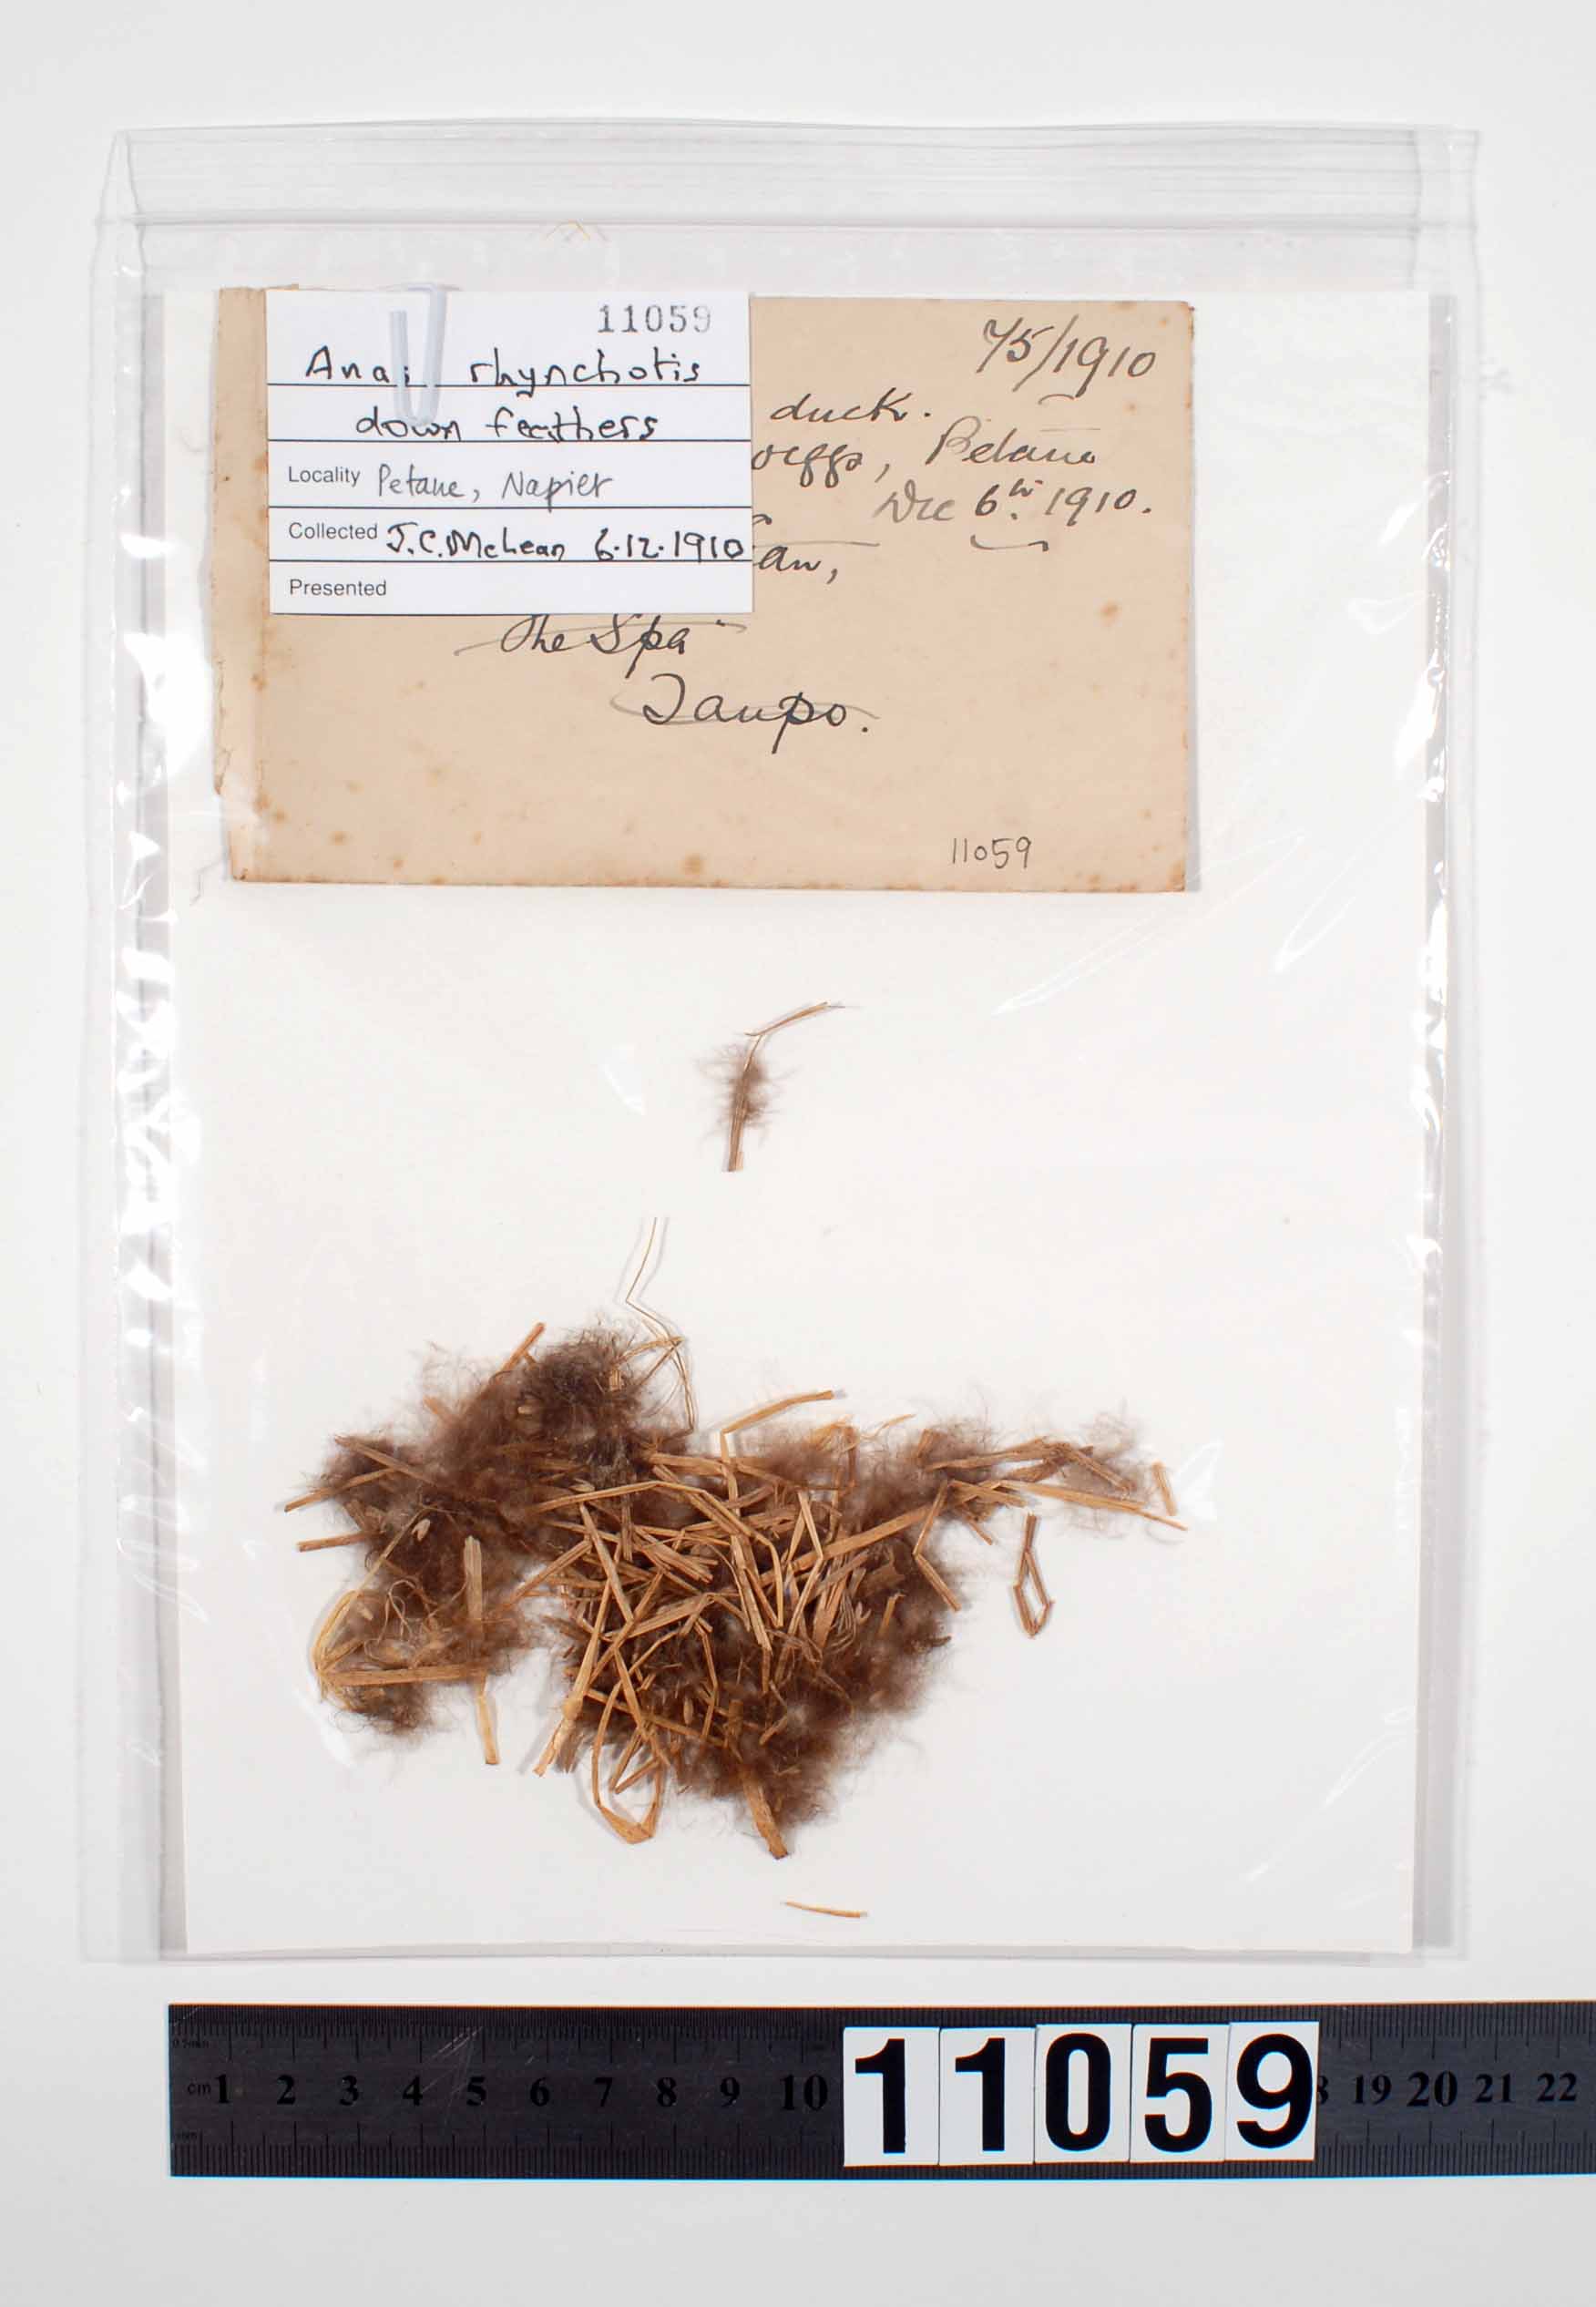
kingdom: Animalia
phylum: Chordata
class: Aves
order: Anseriformes
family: Anatidae
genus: Spatula
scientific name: Spatula rhynchotis
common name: Australian shoveler
